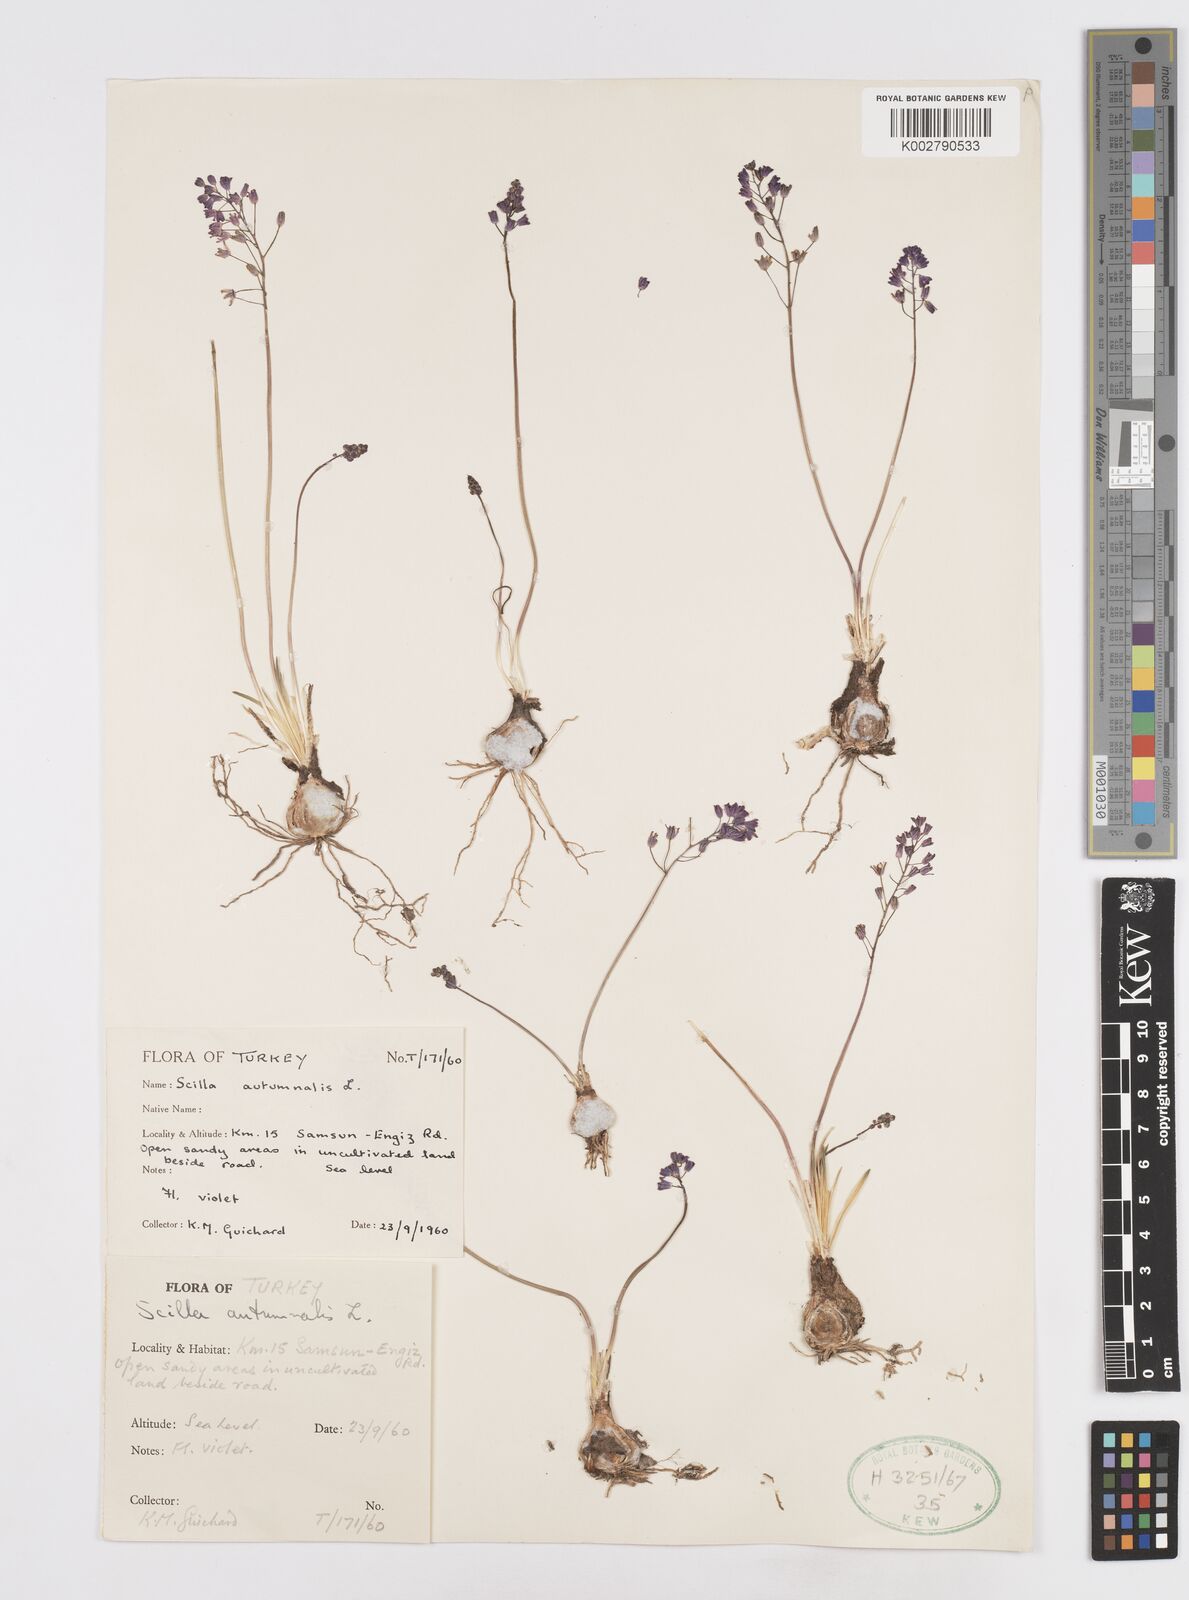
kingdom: Plantae
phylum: Tracheophyta
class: Liliopsida
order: Asparagales
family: Asparagaceae
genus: Prospero
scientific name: Prospero autumnale
